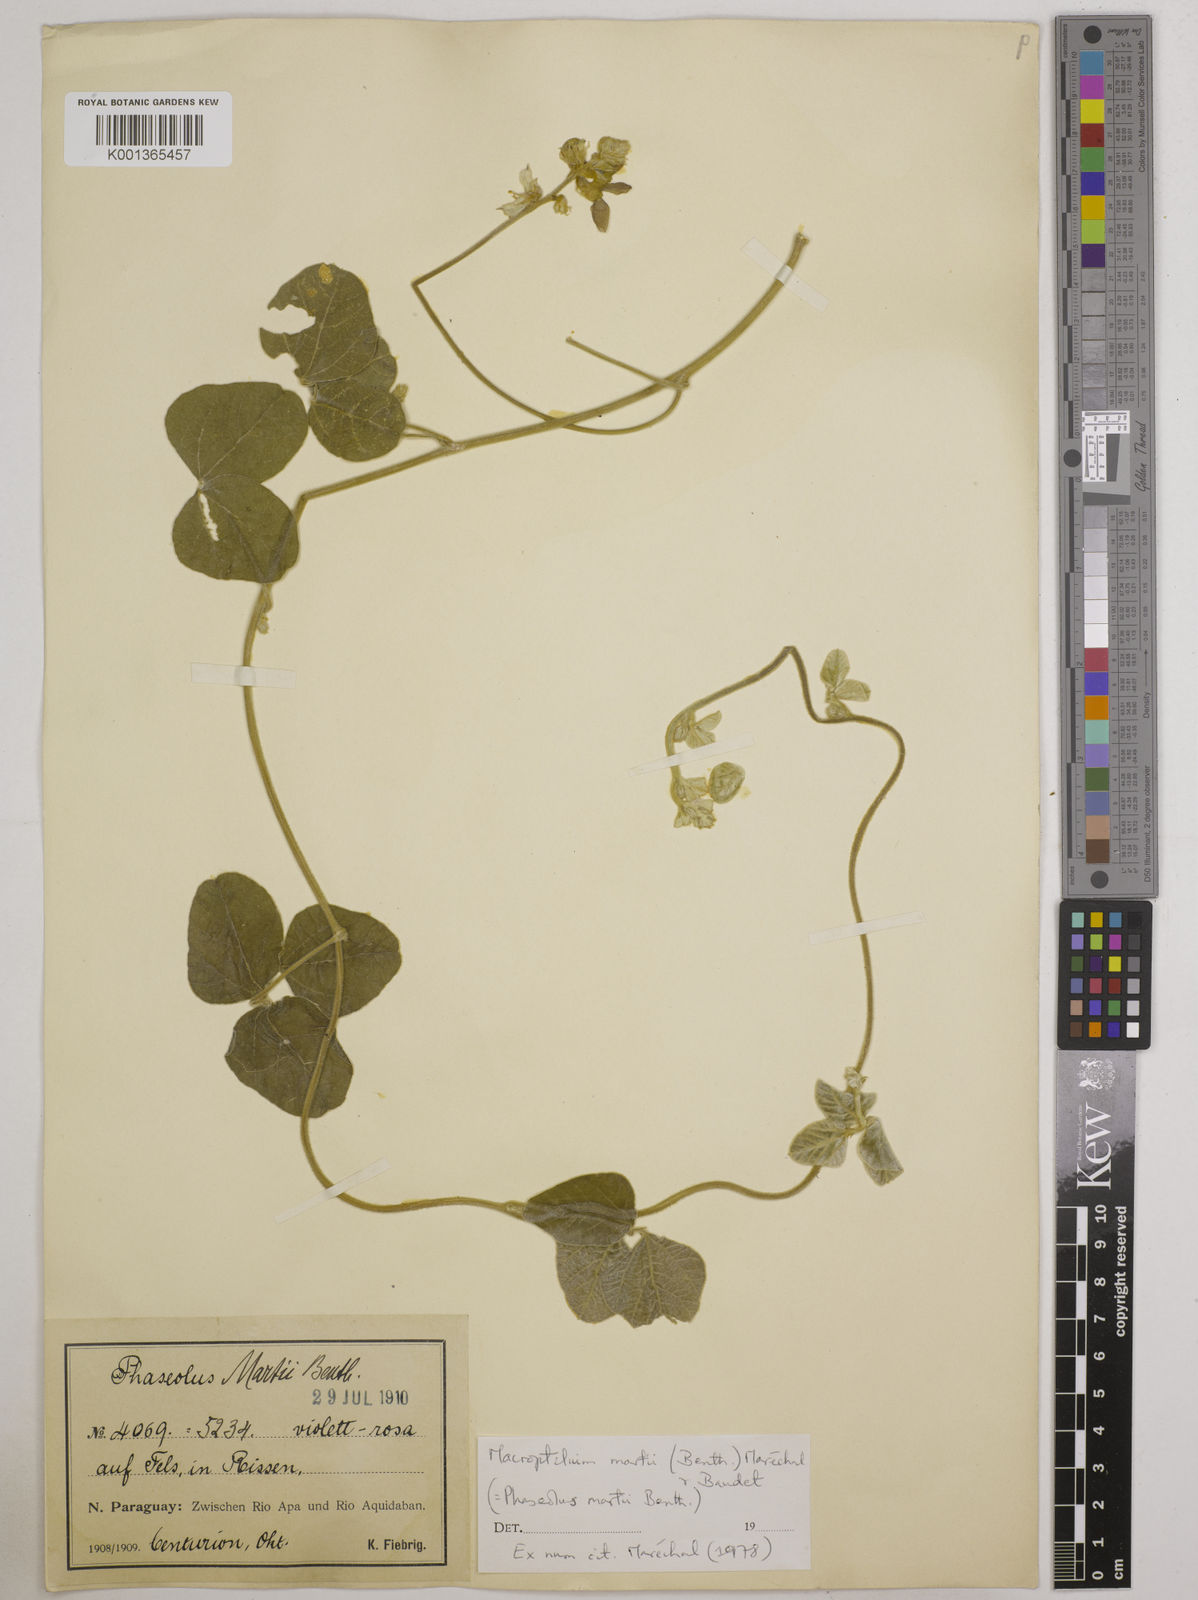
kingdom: Plantae
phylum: Tracheophyta
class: Magnoliopsida
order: Fabales
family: Fabaceae
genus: Macroptilium
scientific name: Macroptilium martii
